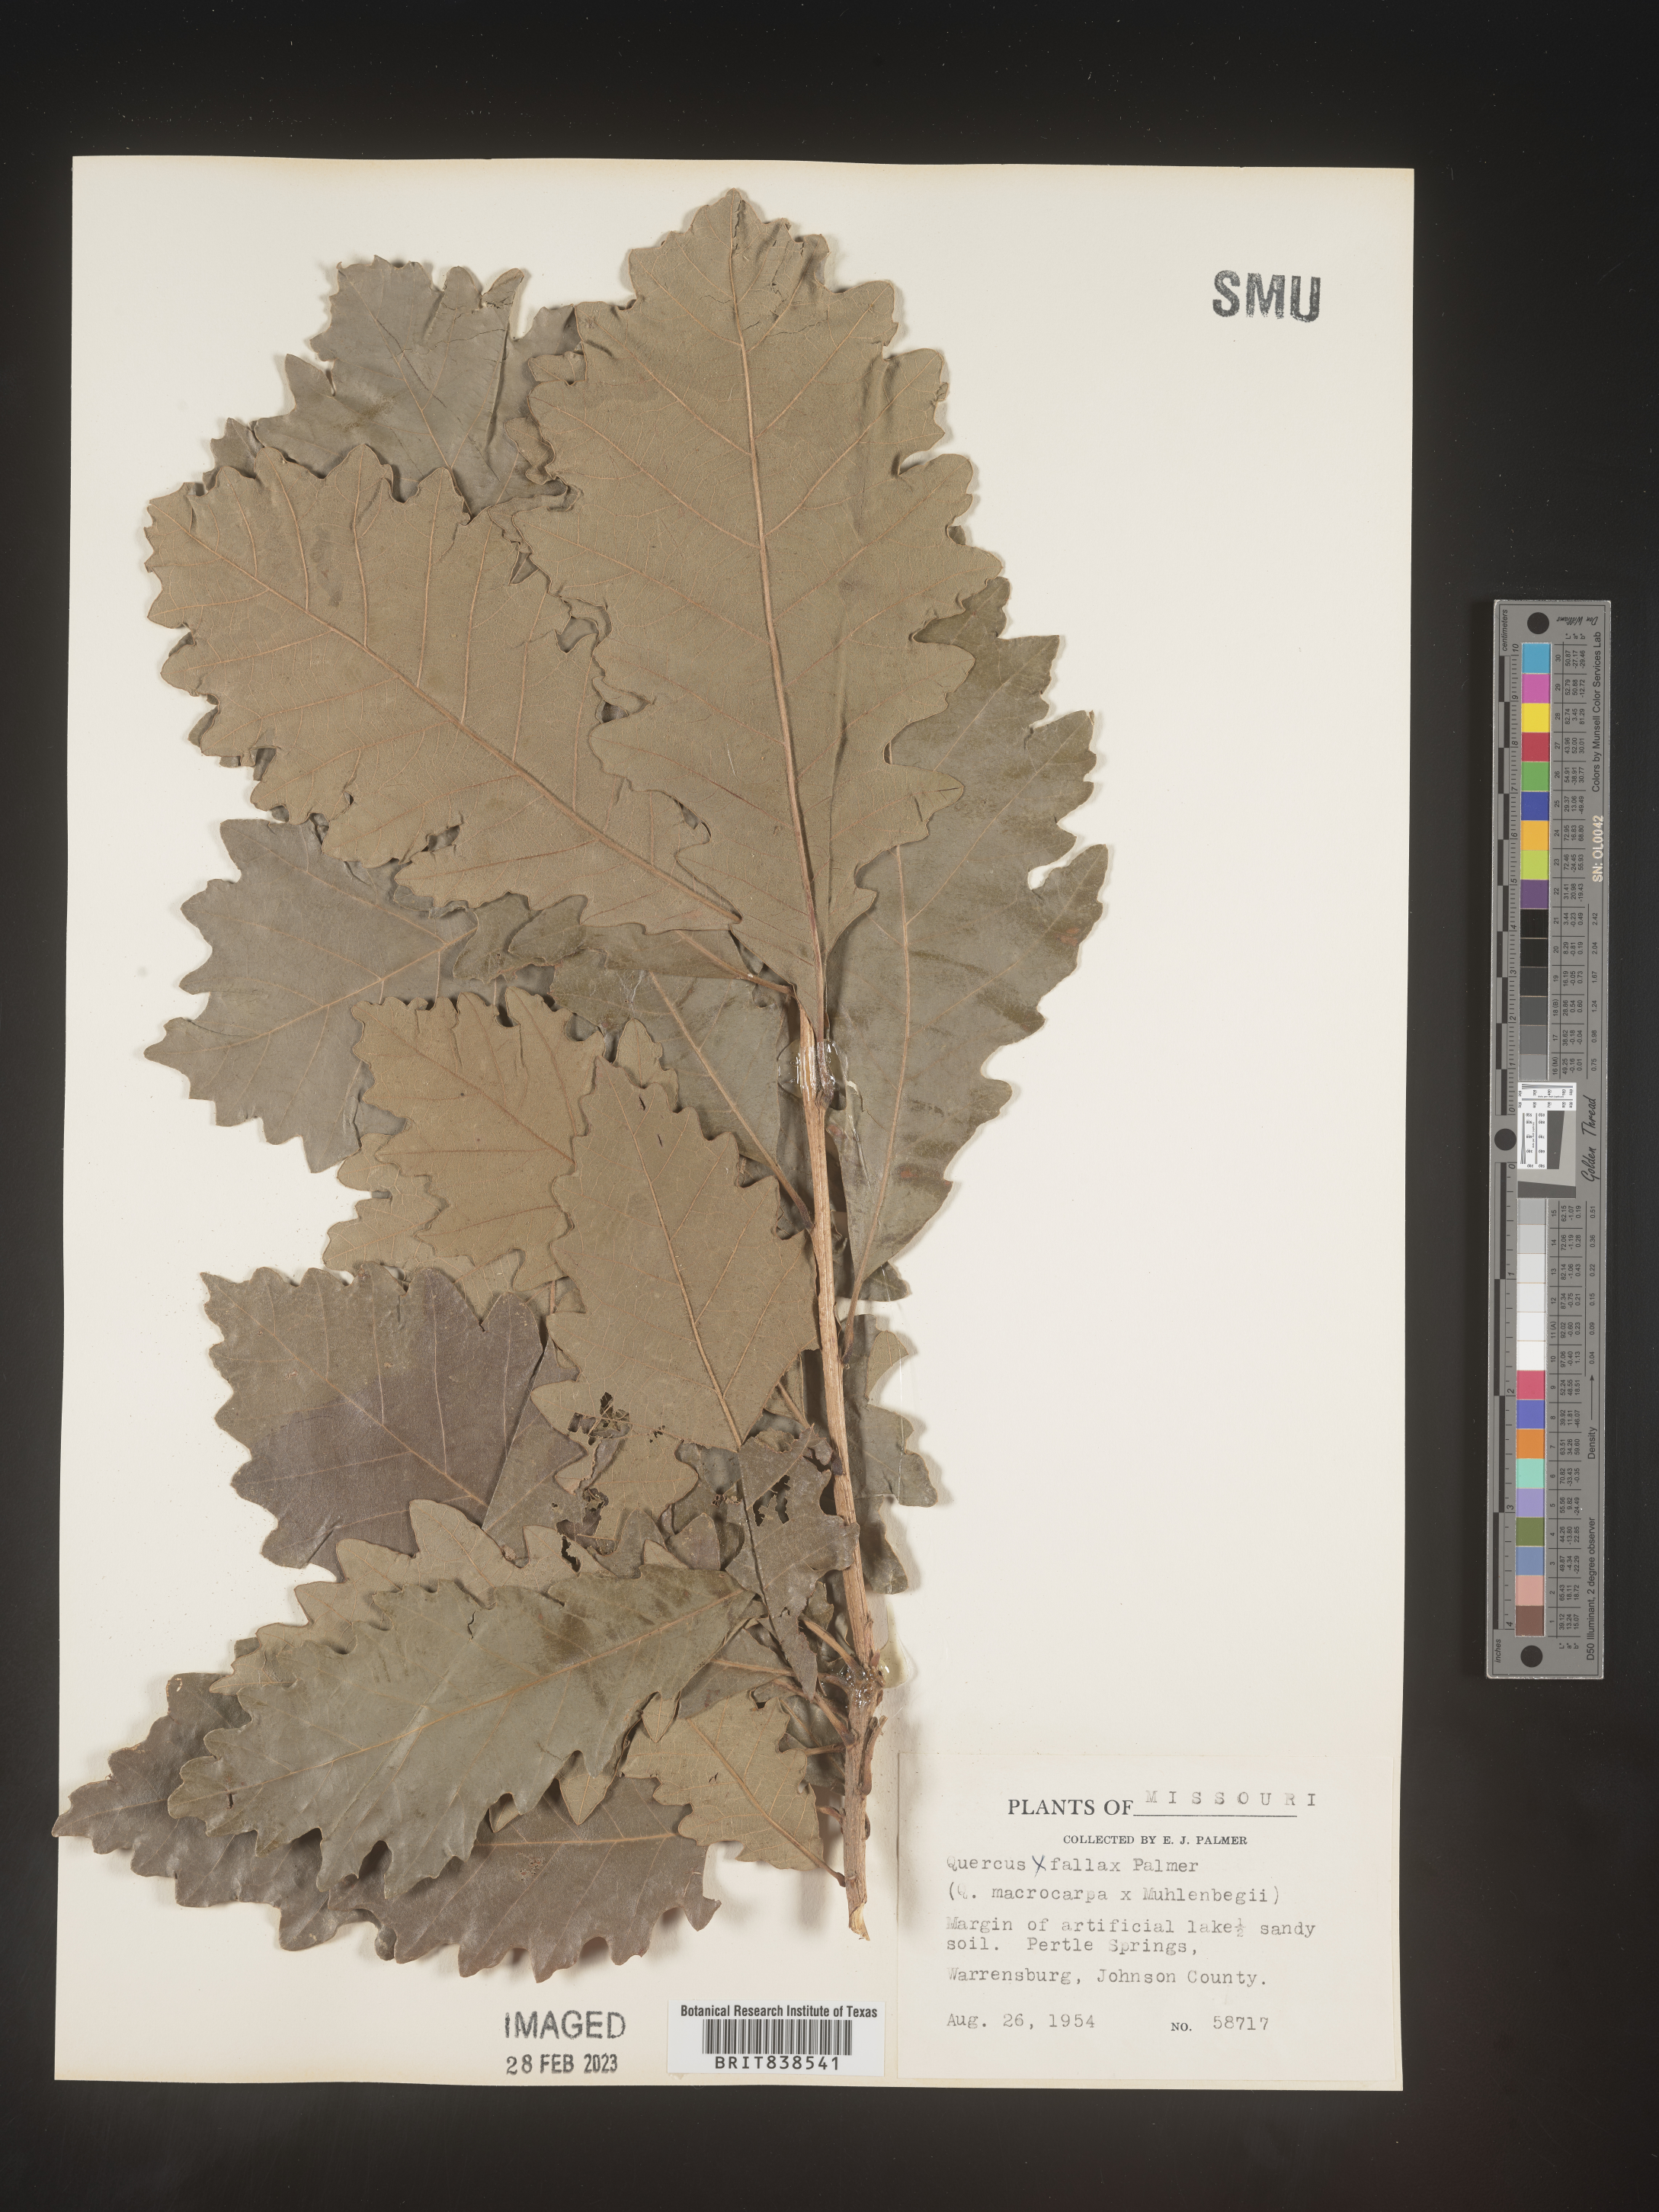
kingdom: Plantae
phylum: Tracheophyta
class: Magnoliopsida
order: Fagales
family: Fagaceae
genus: Quercus
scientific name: Quercus
